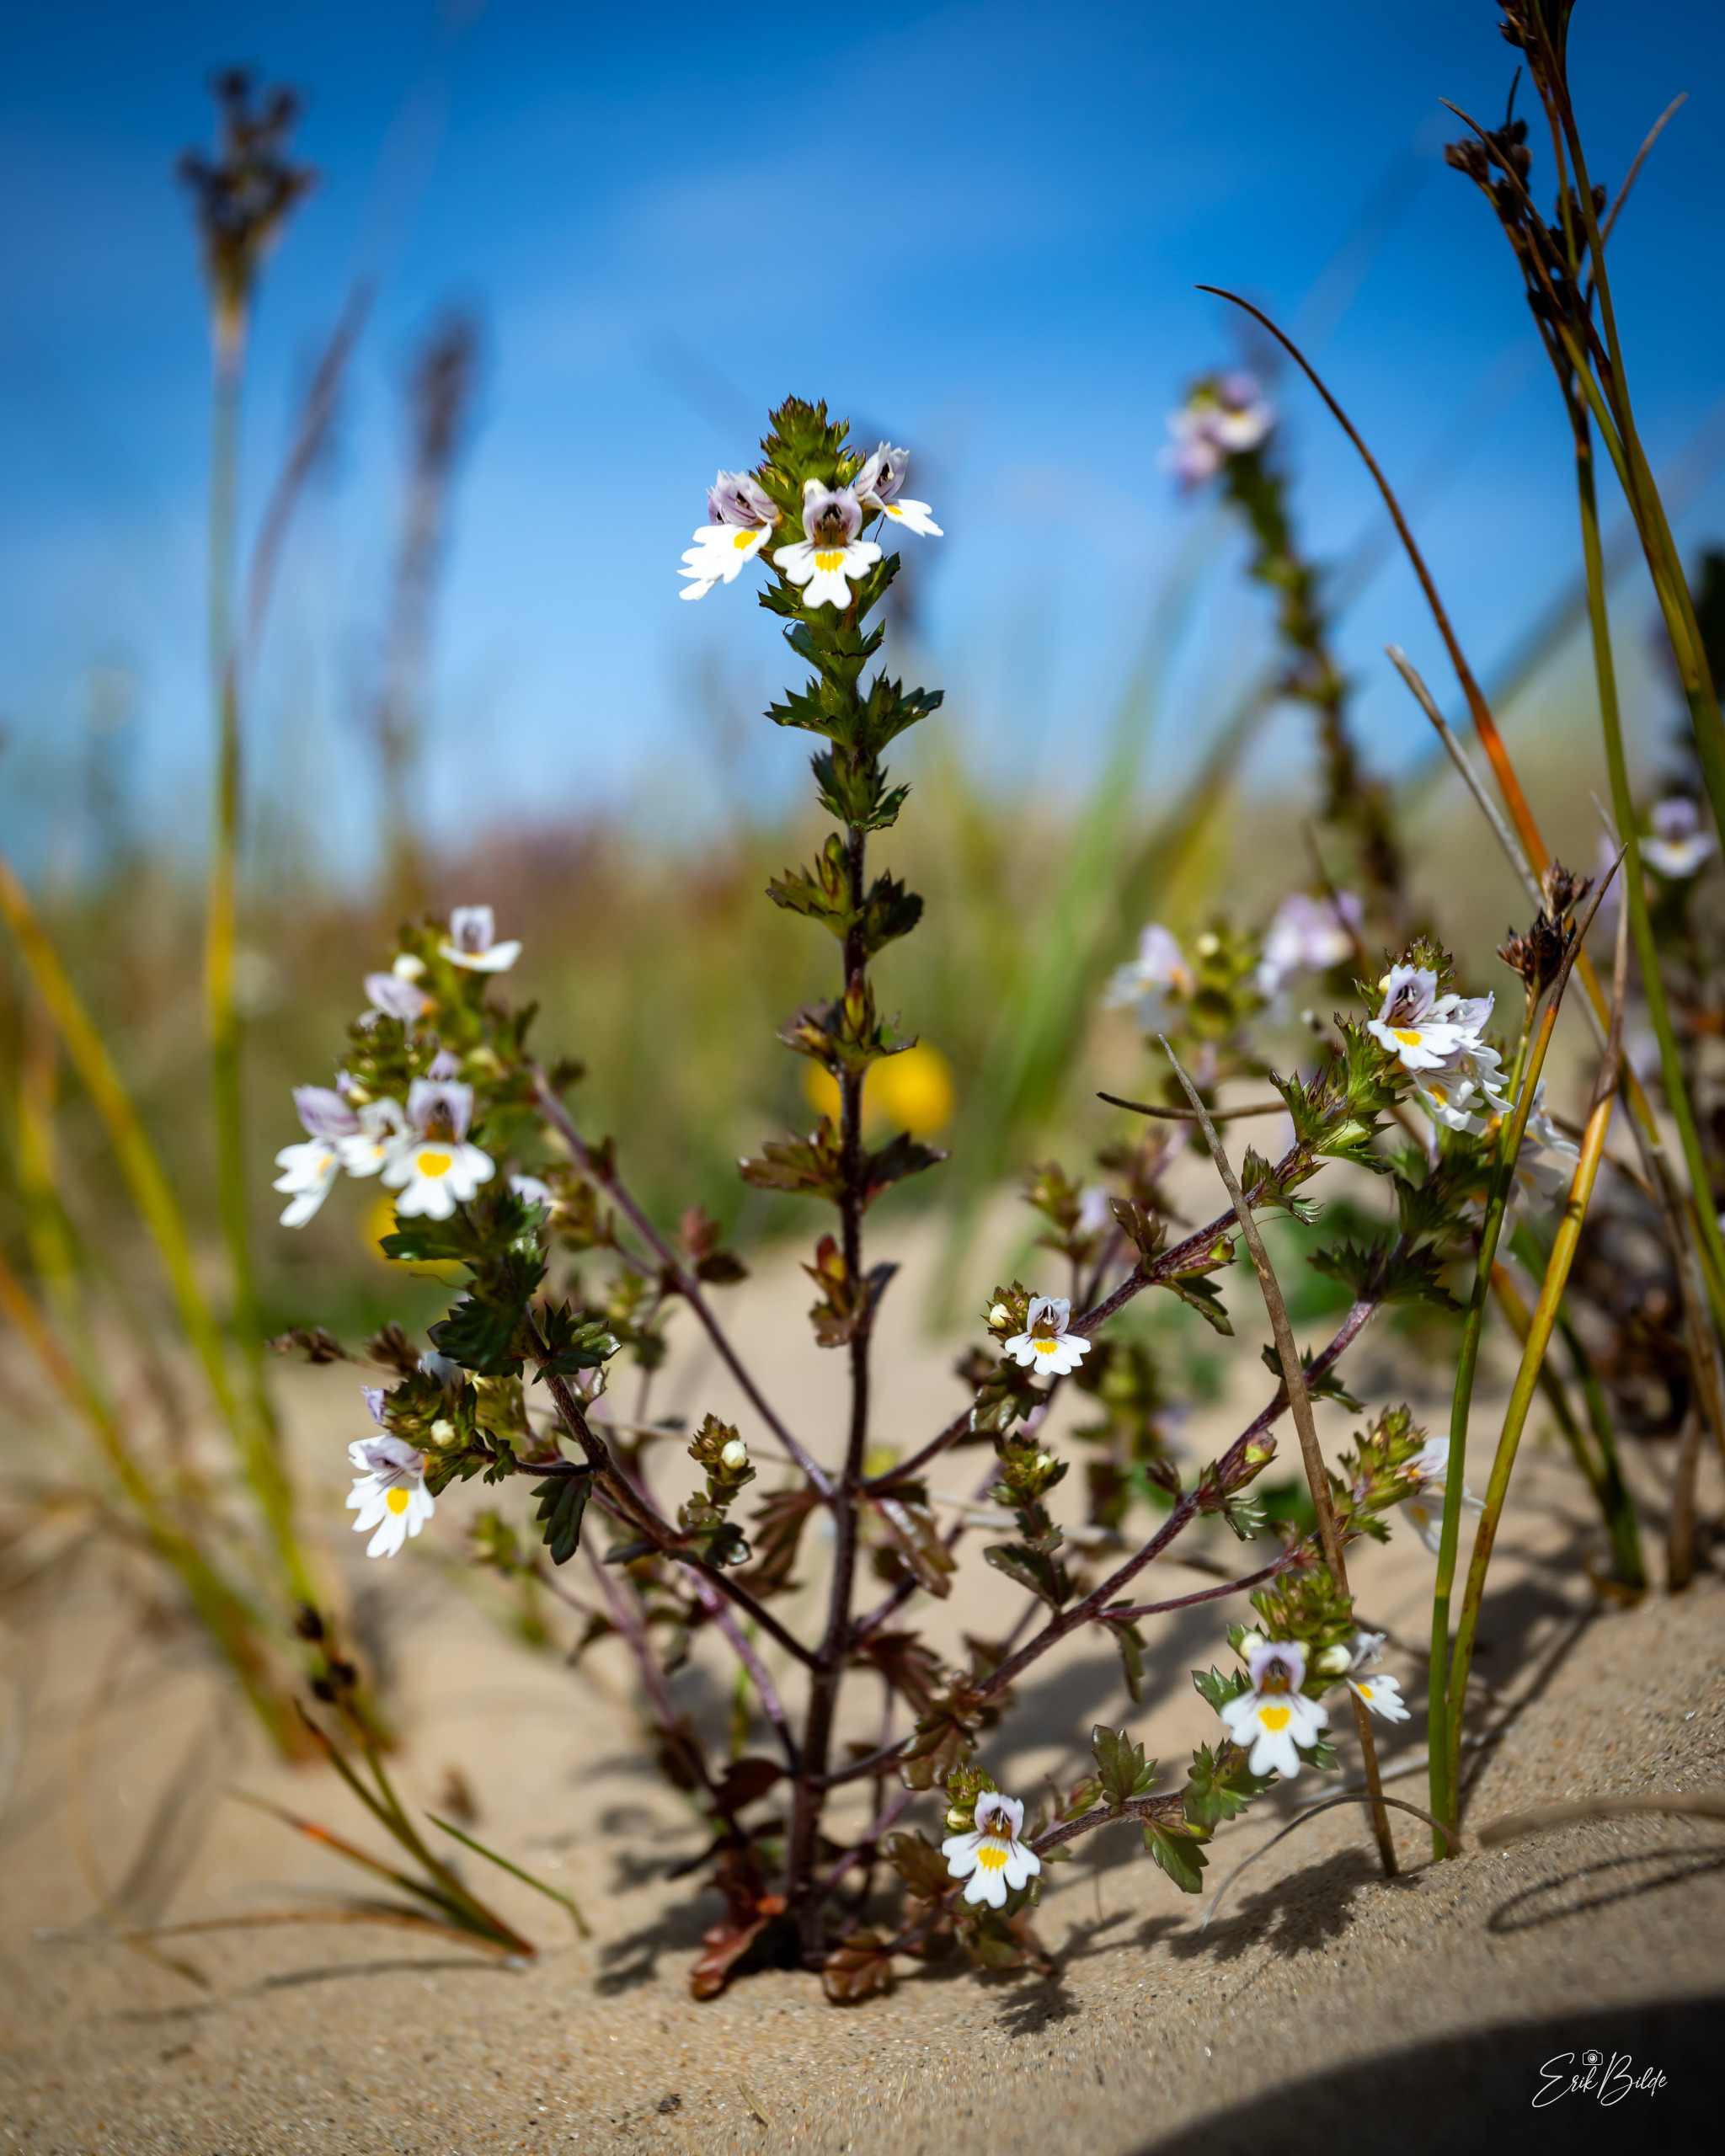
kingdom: Plantae
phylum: Tracheophyta
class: Magnoliopsida
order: Lamiales
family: Orobanchaceae
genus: Euphrasia
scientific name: Euphrasia
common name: Lyng-øjentrøst × spids øjentrøst
